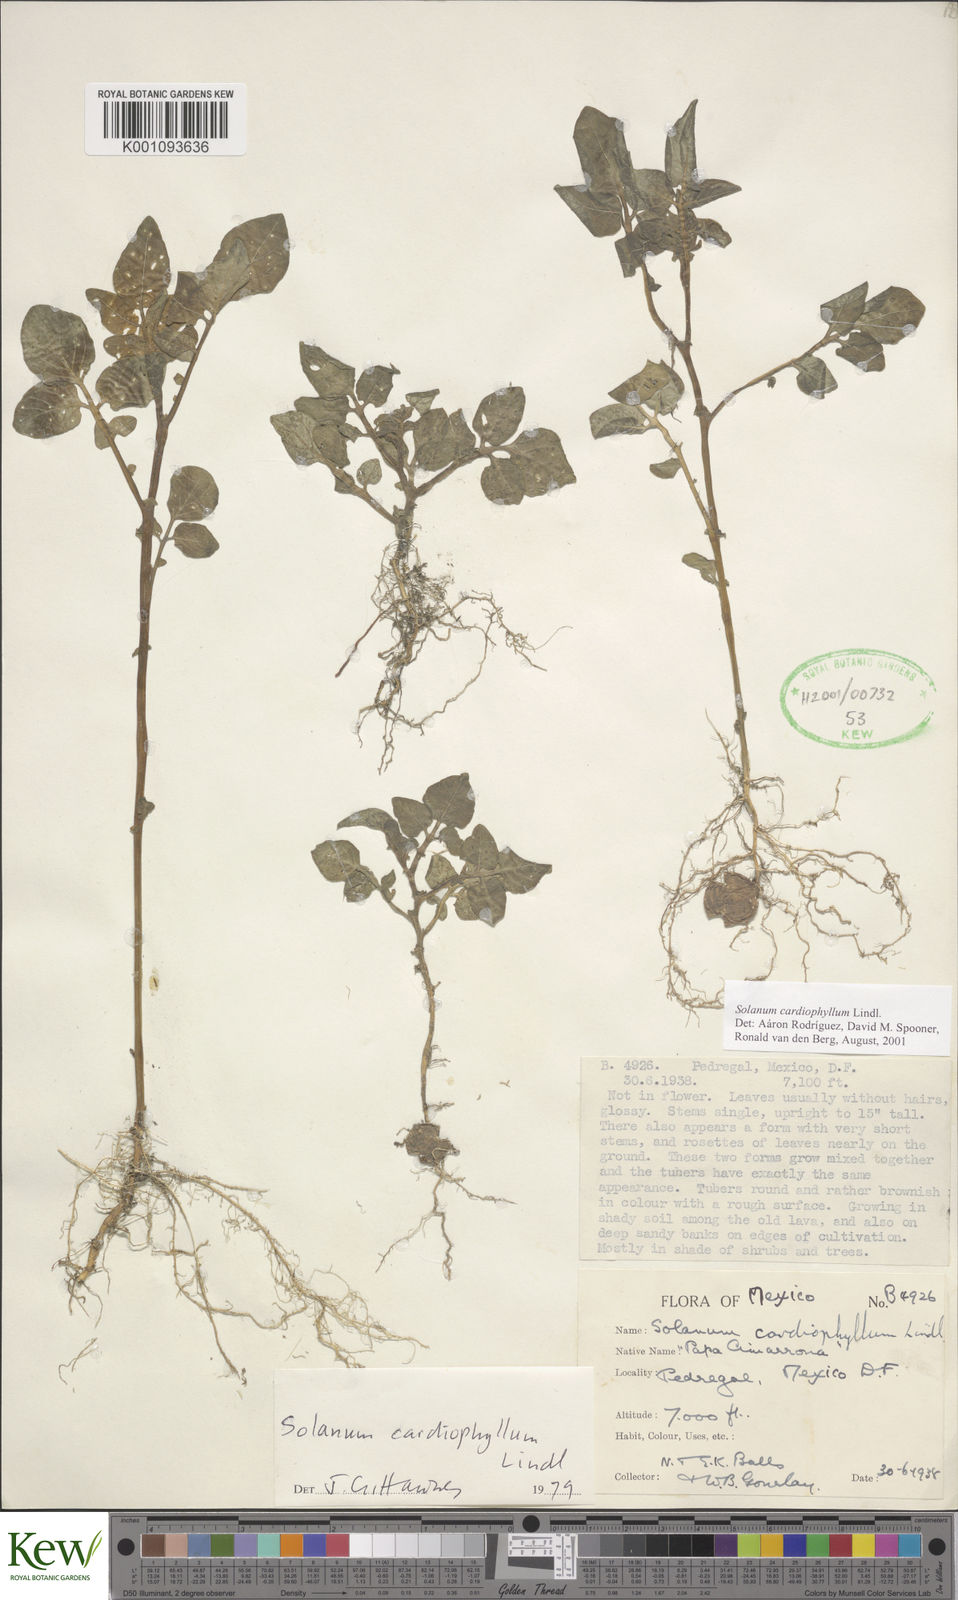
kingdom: Plantae
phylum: Tracheophyta
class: Magnoliopsida
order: Solanales
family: Solanaceae
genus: Solanum
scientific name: Solanum cardiophyllum
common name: Heartleaf horsenettle
